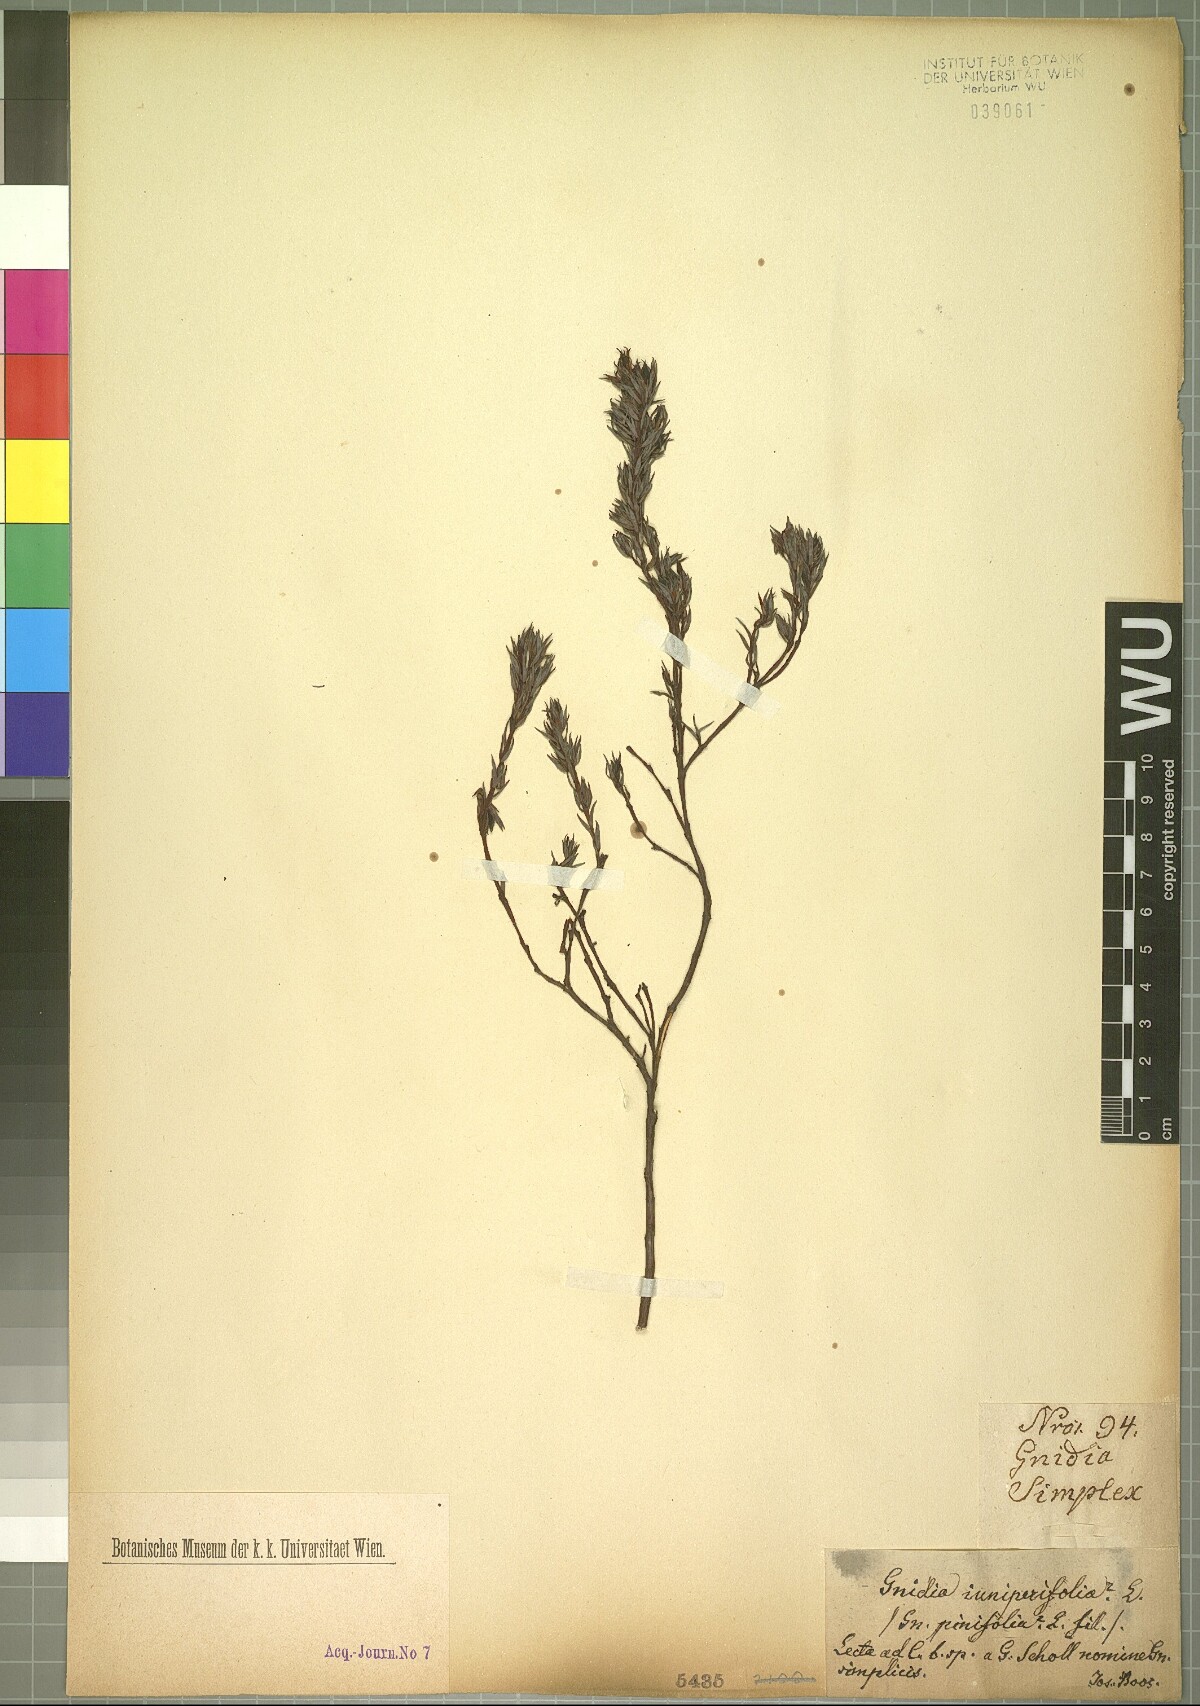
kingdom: Plantae
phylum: Tracheophyta
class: Magnoliopsida
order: Malvales
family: Thymelaeaceae
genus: Gnidia
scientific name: Gnidia juniperifolia
